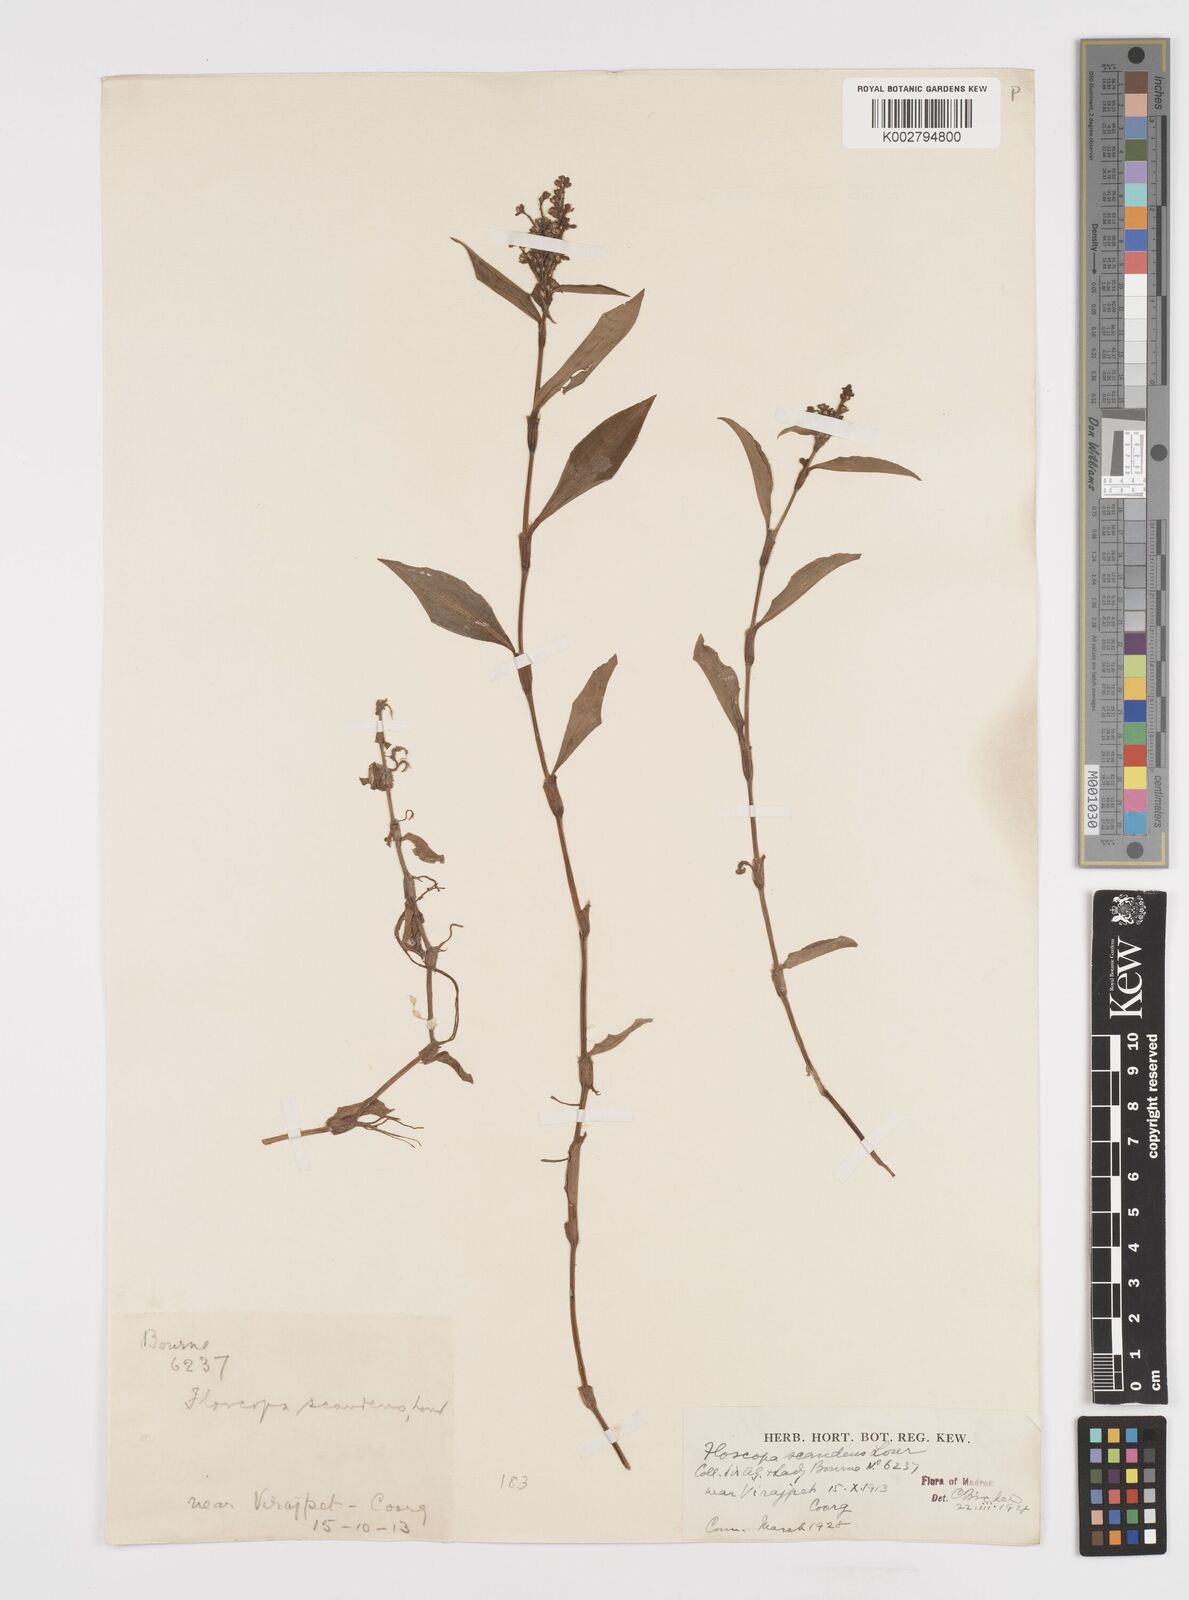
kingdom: Plantae
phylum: Tracheophyta
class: Liliopsida
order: Commelinales
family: Commelinaceae
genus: Floscopa
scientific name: Floscopa scandens
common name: Climbing flower cup
